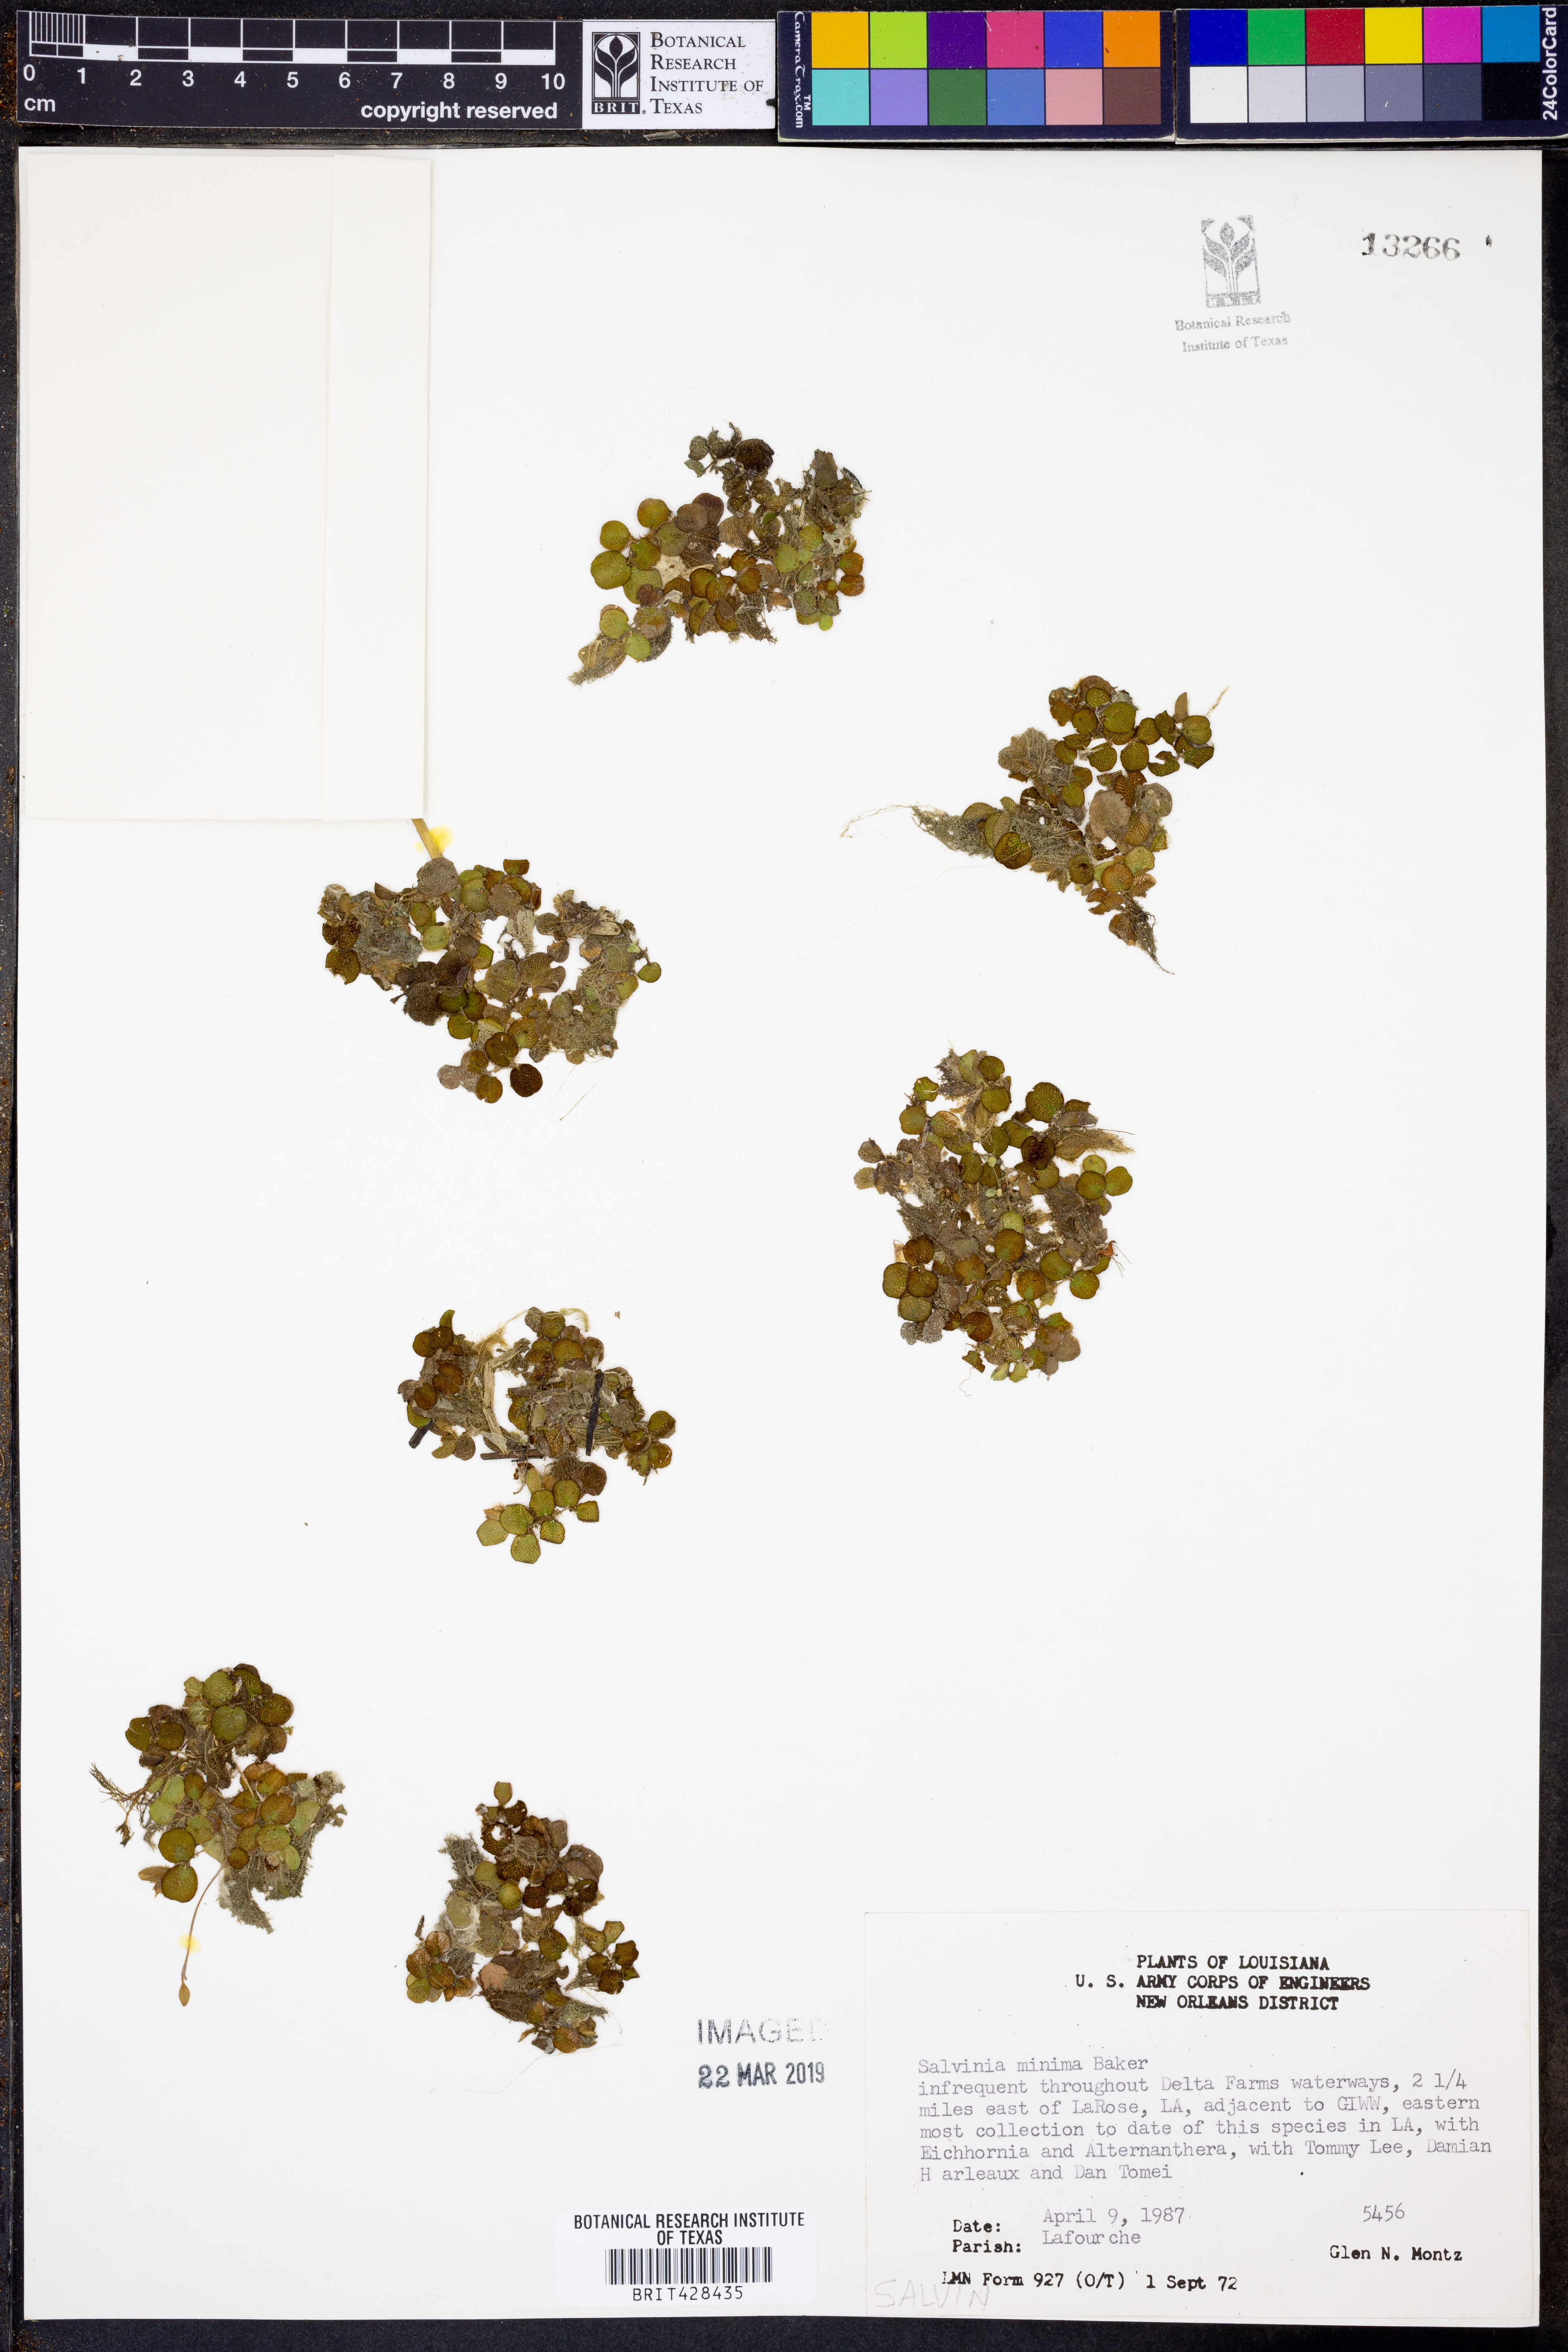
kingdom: Plantae
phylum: Tracheophyta
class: Polypodiopsida
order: Salviniales
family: Salviniaceae
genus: Salvinia
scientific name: Salvinia minima
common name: Water spangles
